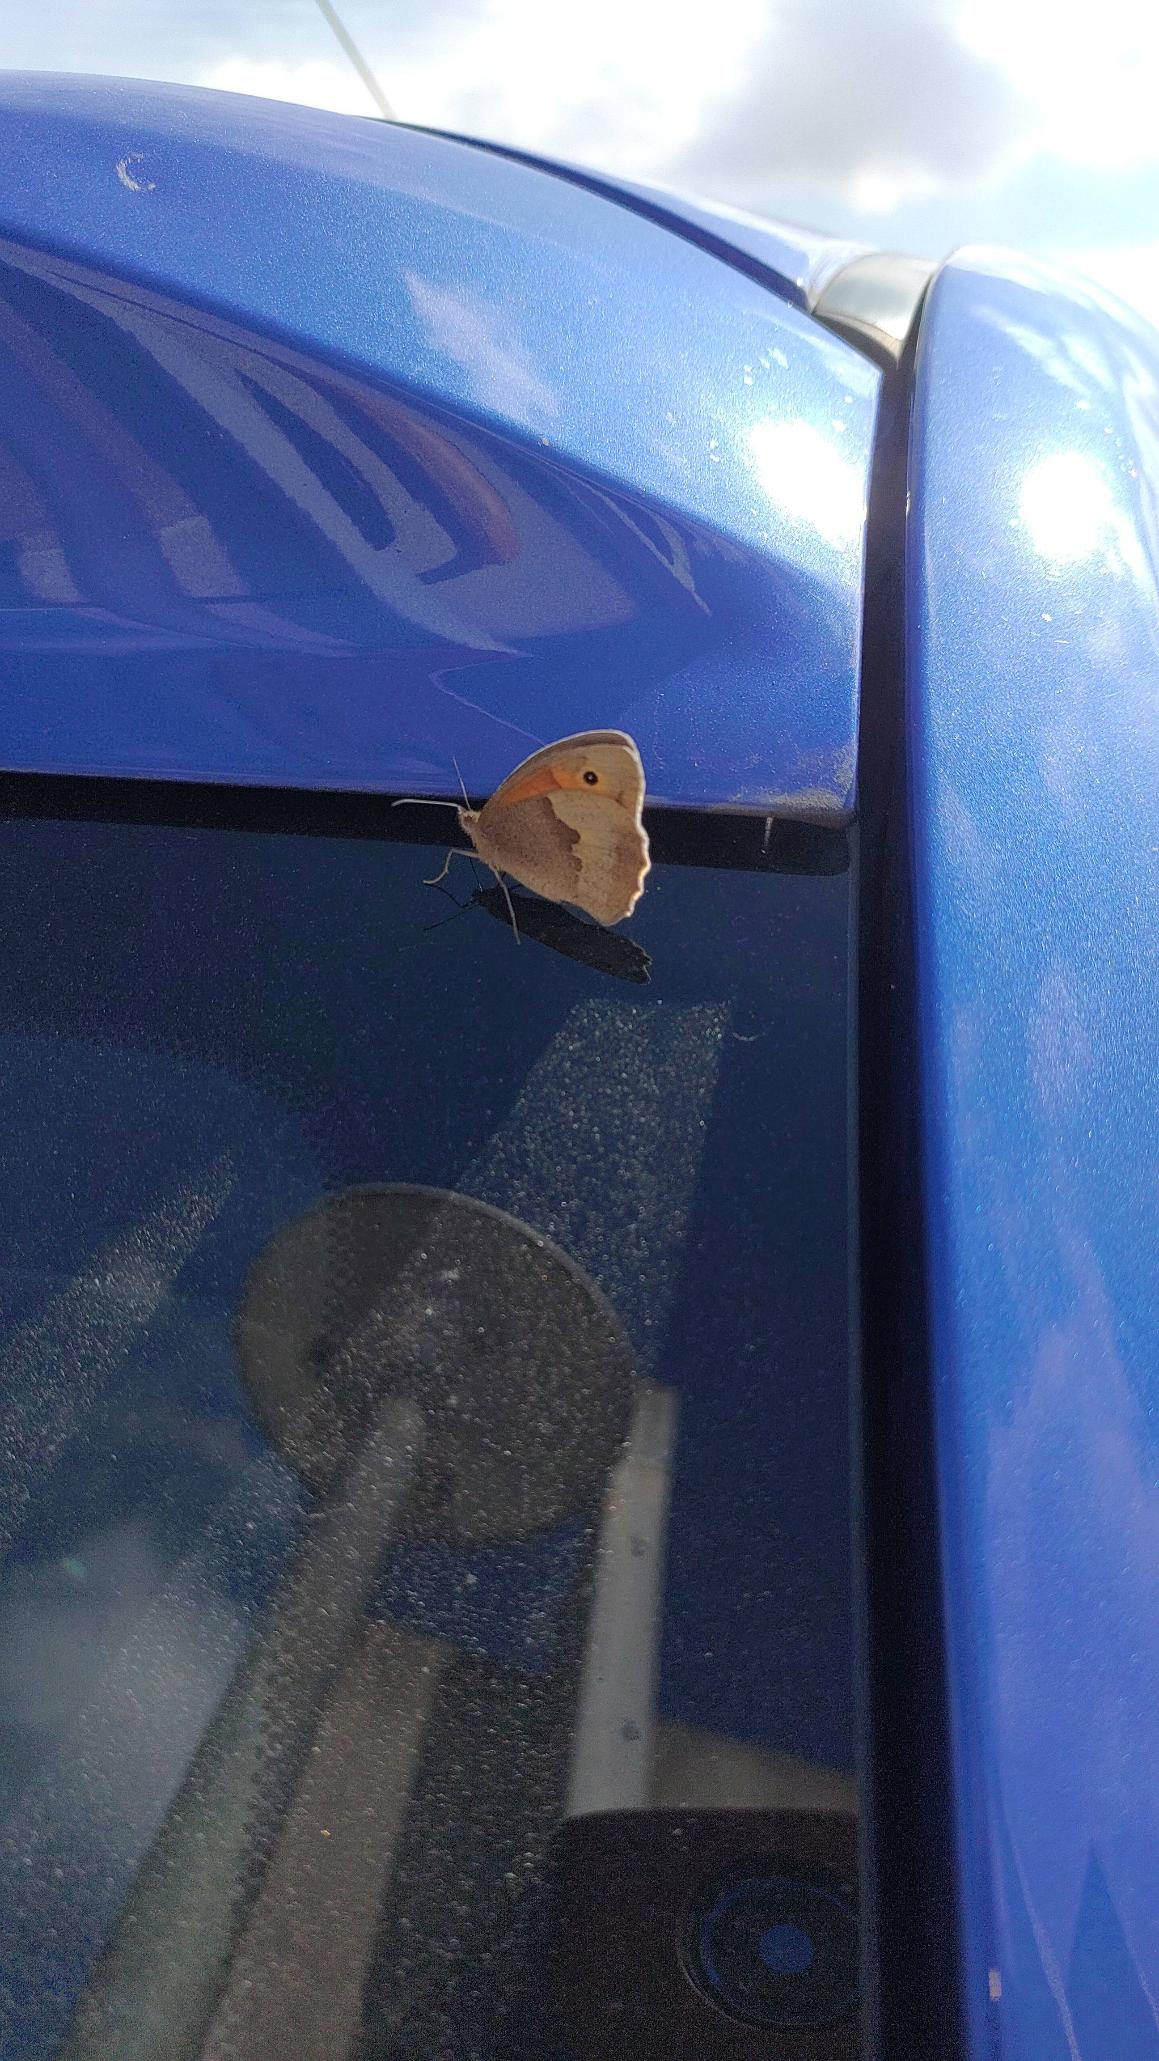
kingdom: Animalia
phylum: Arthropoda
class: Insecta
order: Lepidoptera
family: Nymphalidae
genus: Maniola
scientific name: Maniola jurtina
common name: Græsrandøje
